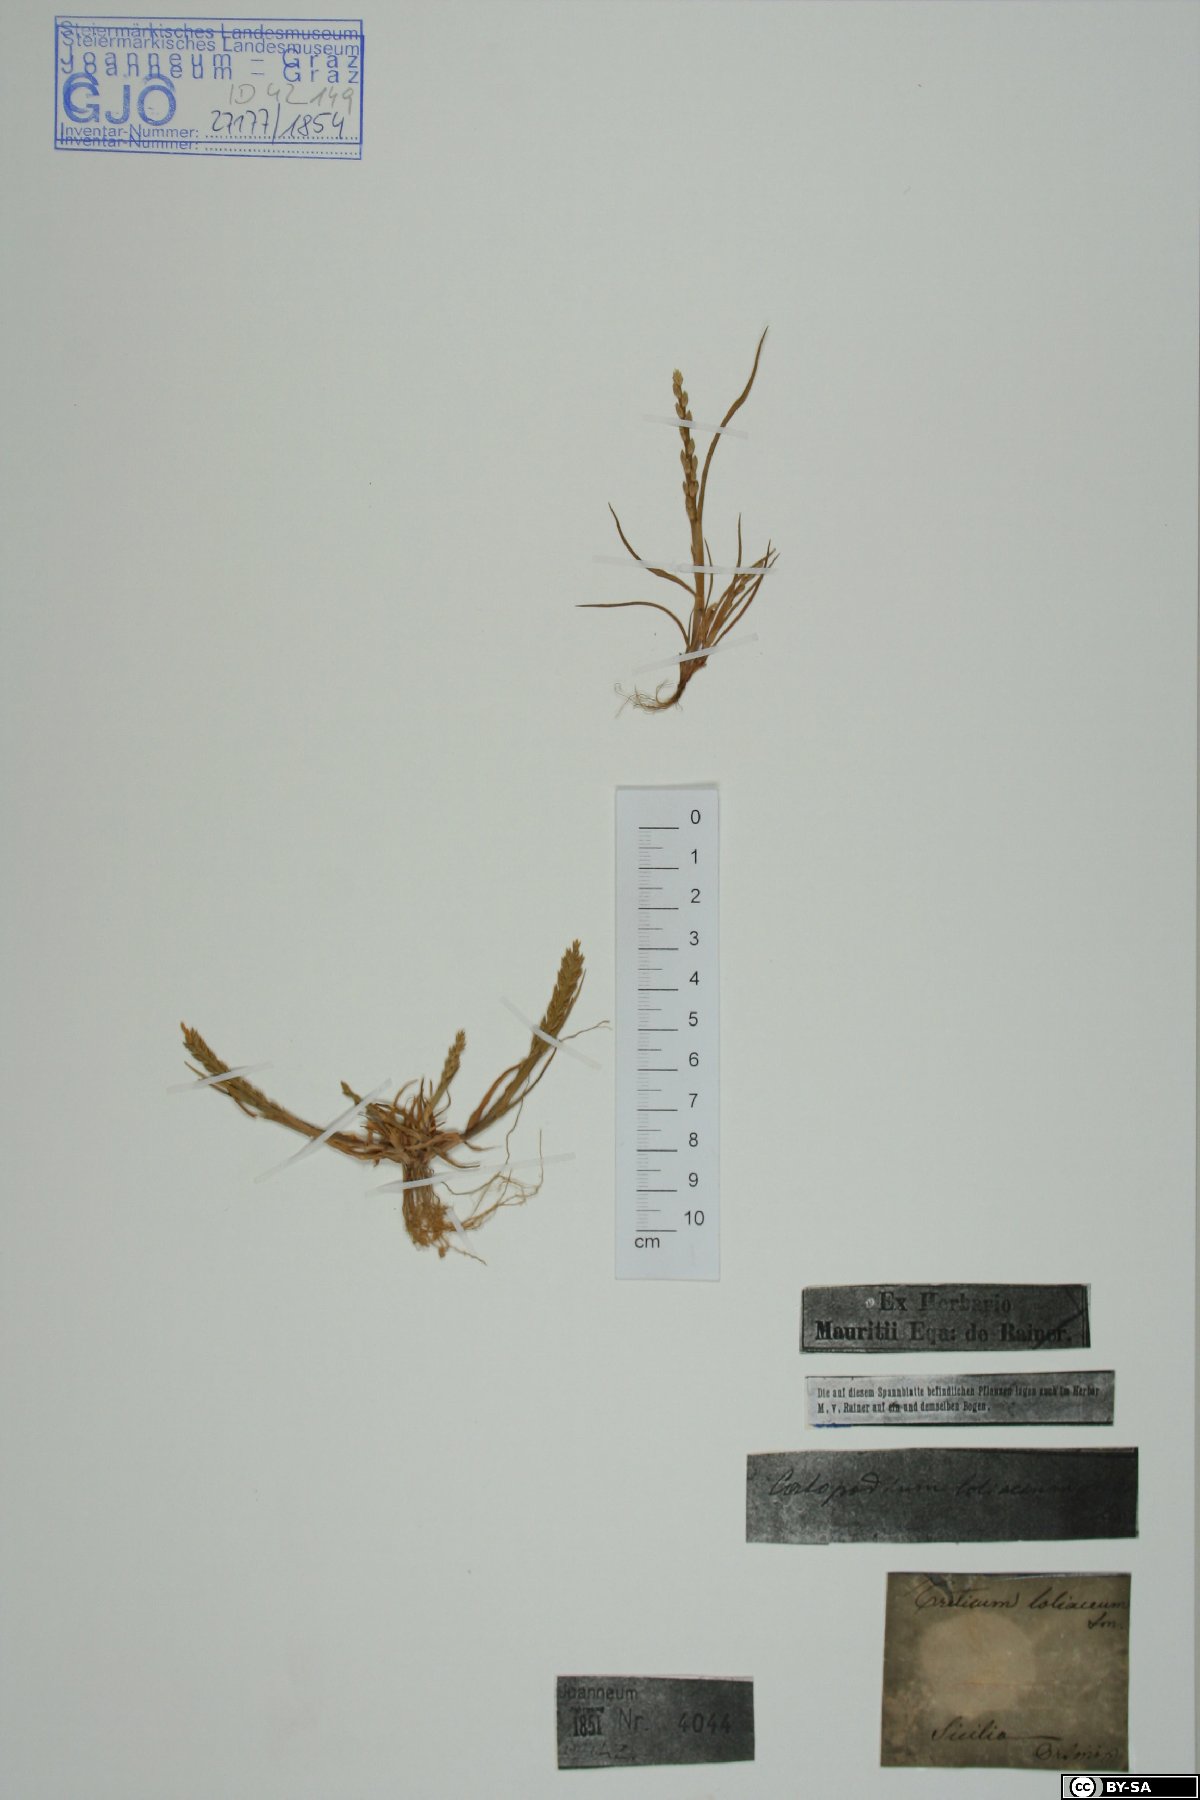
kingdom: Plantae
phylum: Tracheophyta
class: Liliopsida
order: Poales
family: Poaceae
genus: Catapodium
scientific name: Catapodium marinum
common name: Sea fern-grass
